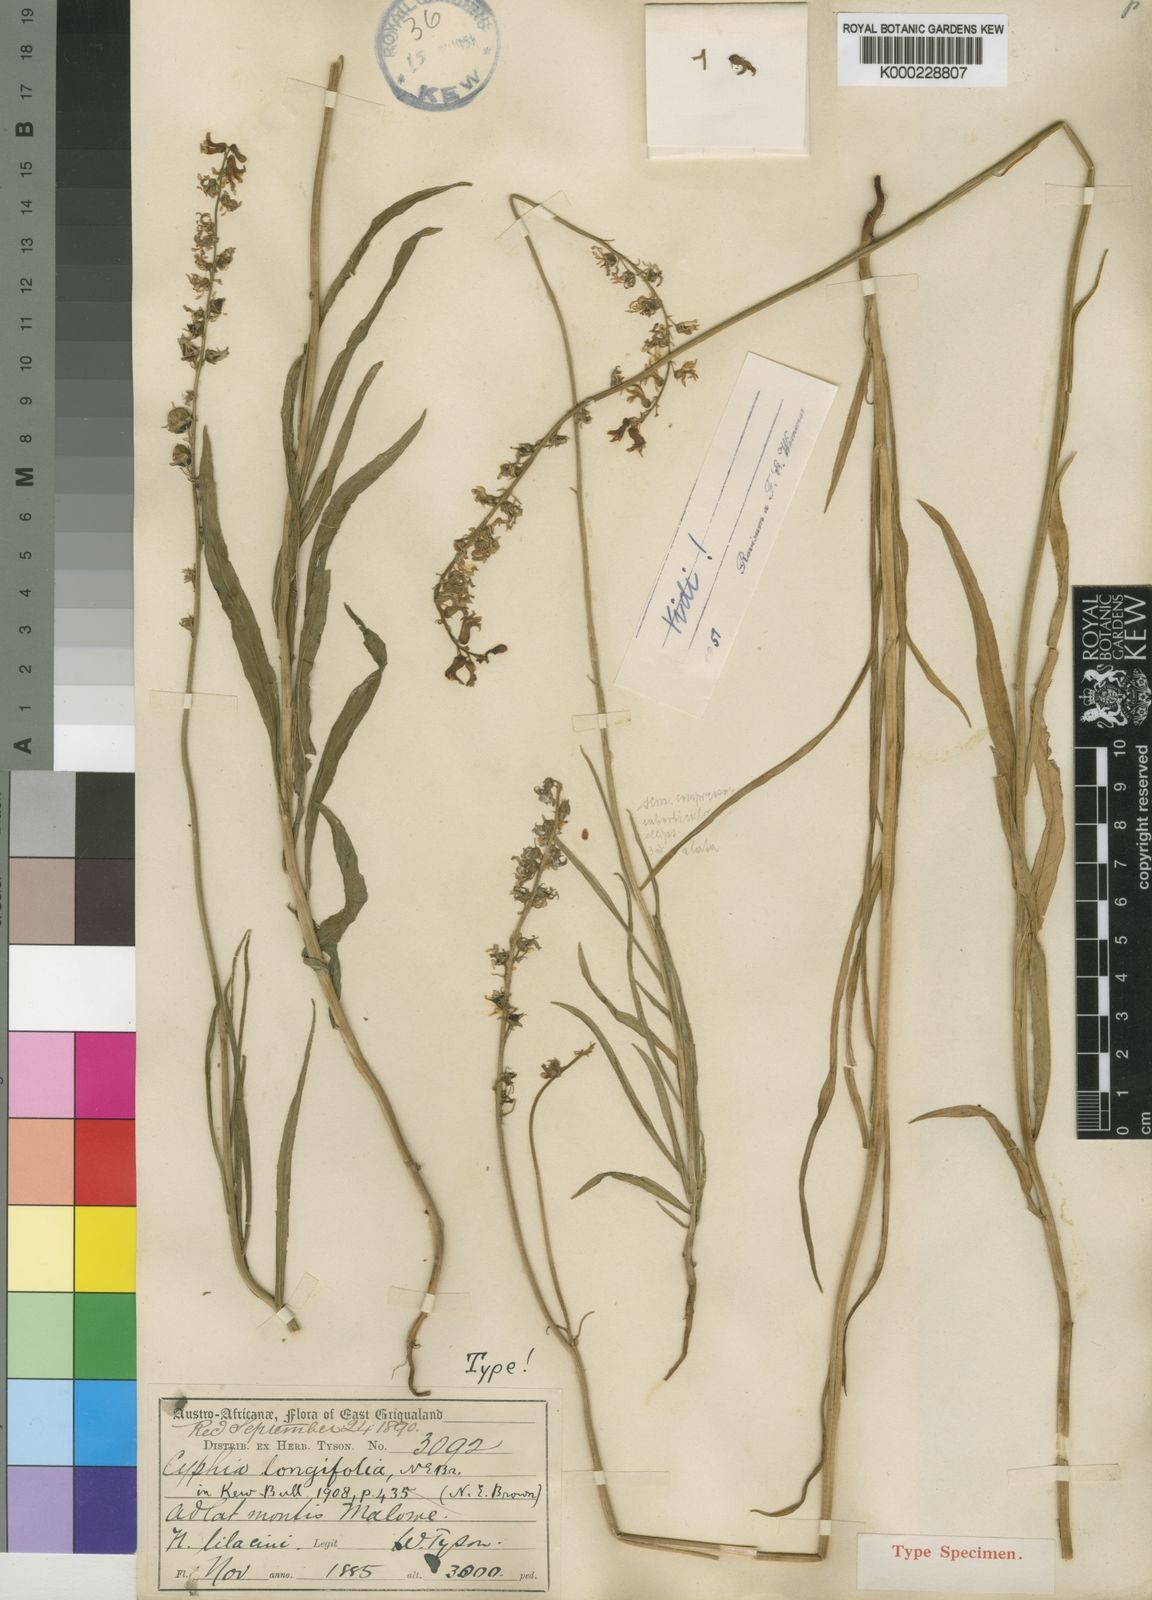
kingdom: Plantae
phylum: Tracheophyta
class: Magnoliopsida
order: Asterales
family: Campanulaceae
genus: Cyphia
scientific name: Cyphia longifolia
